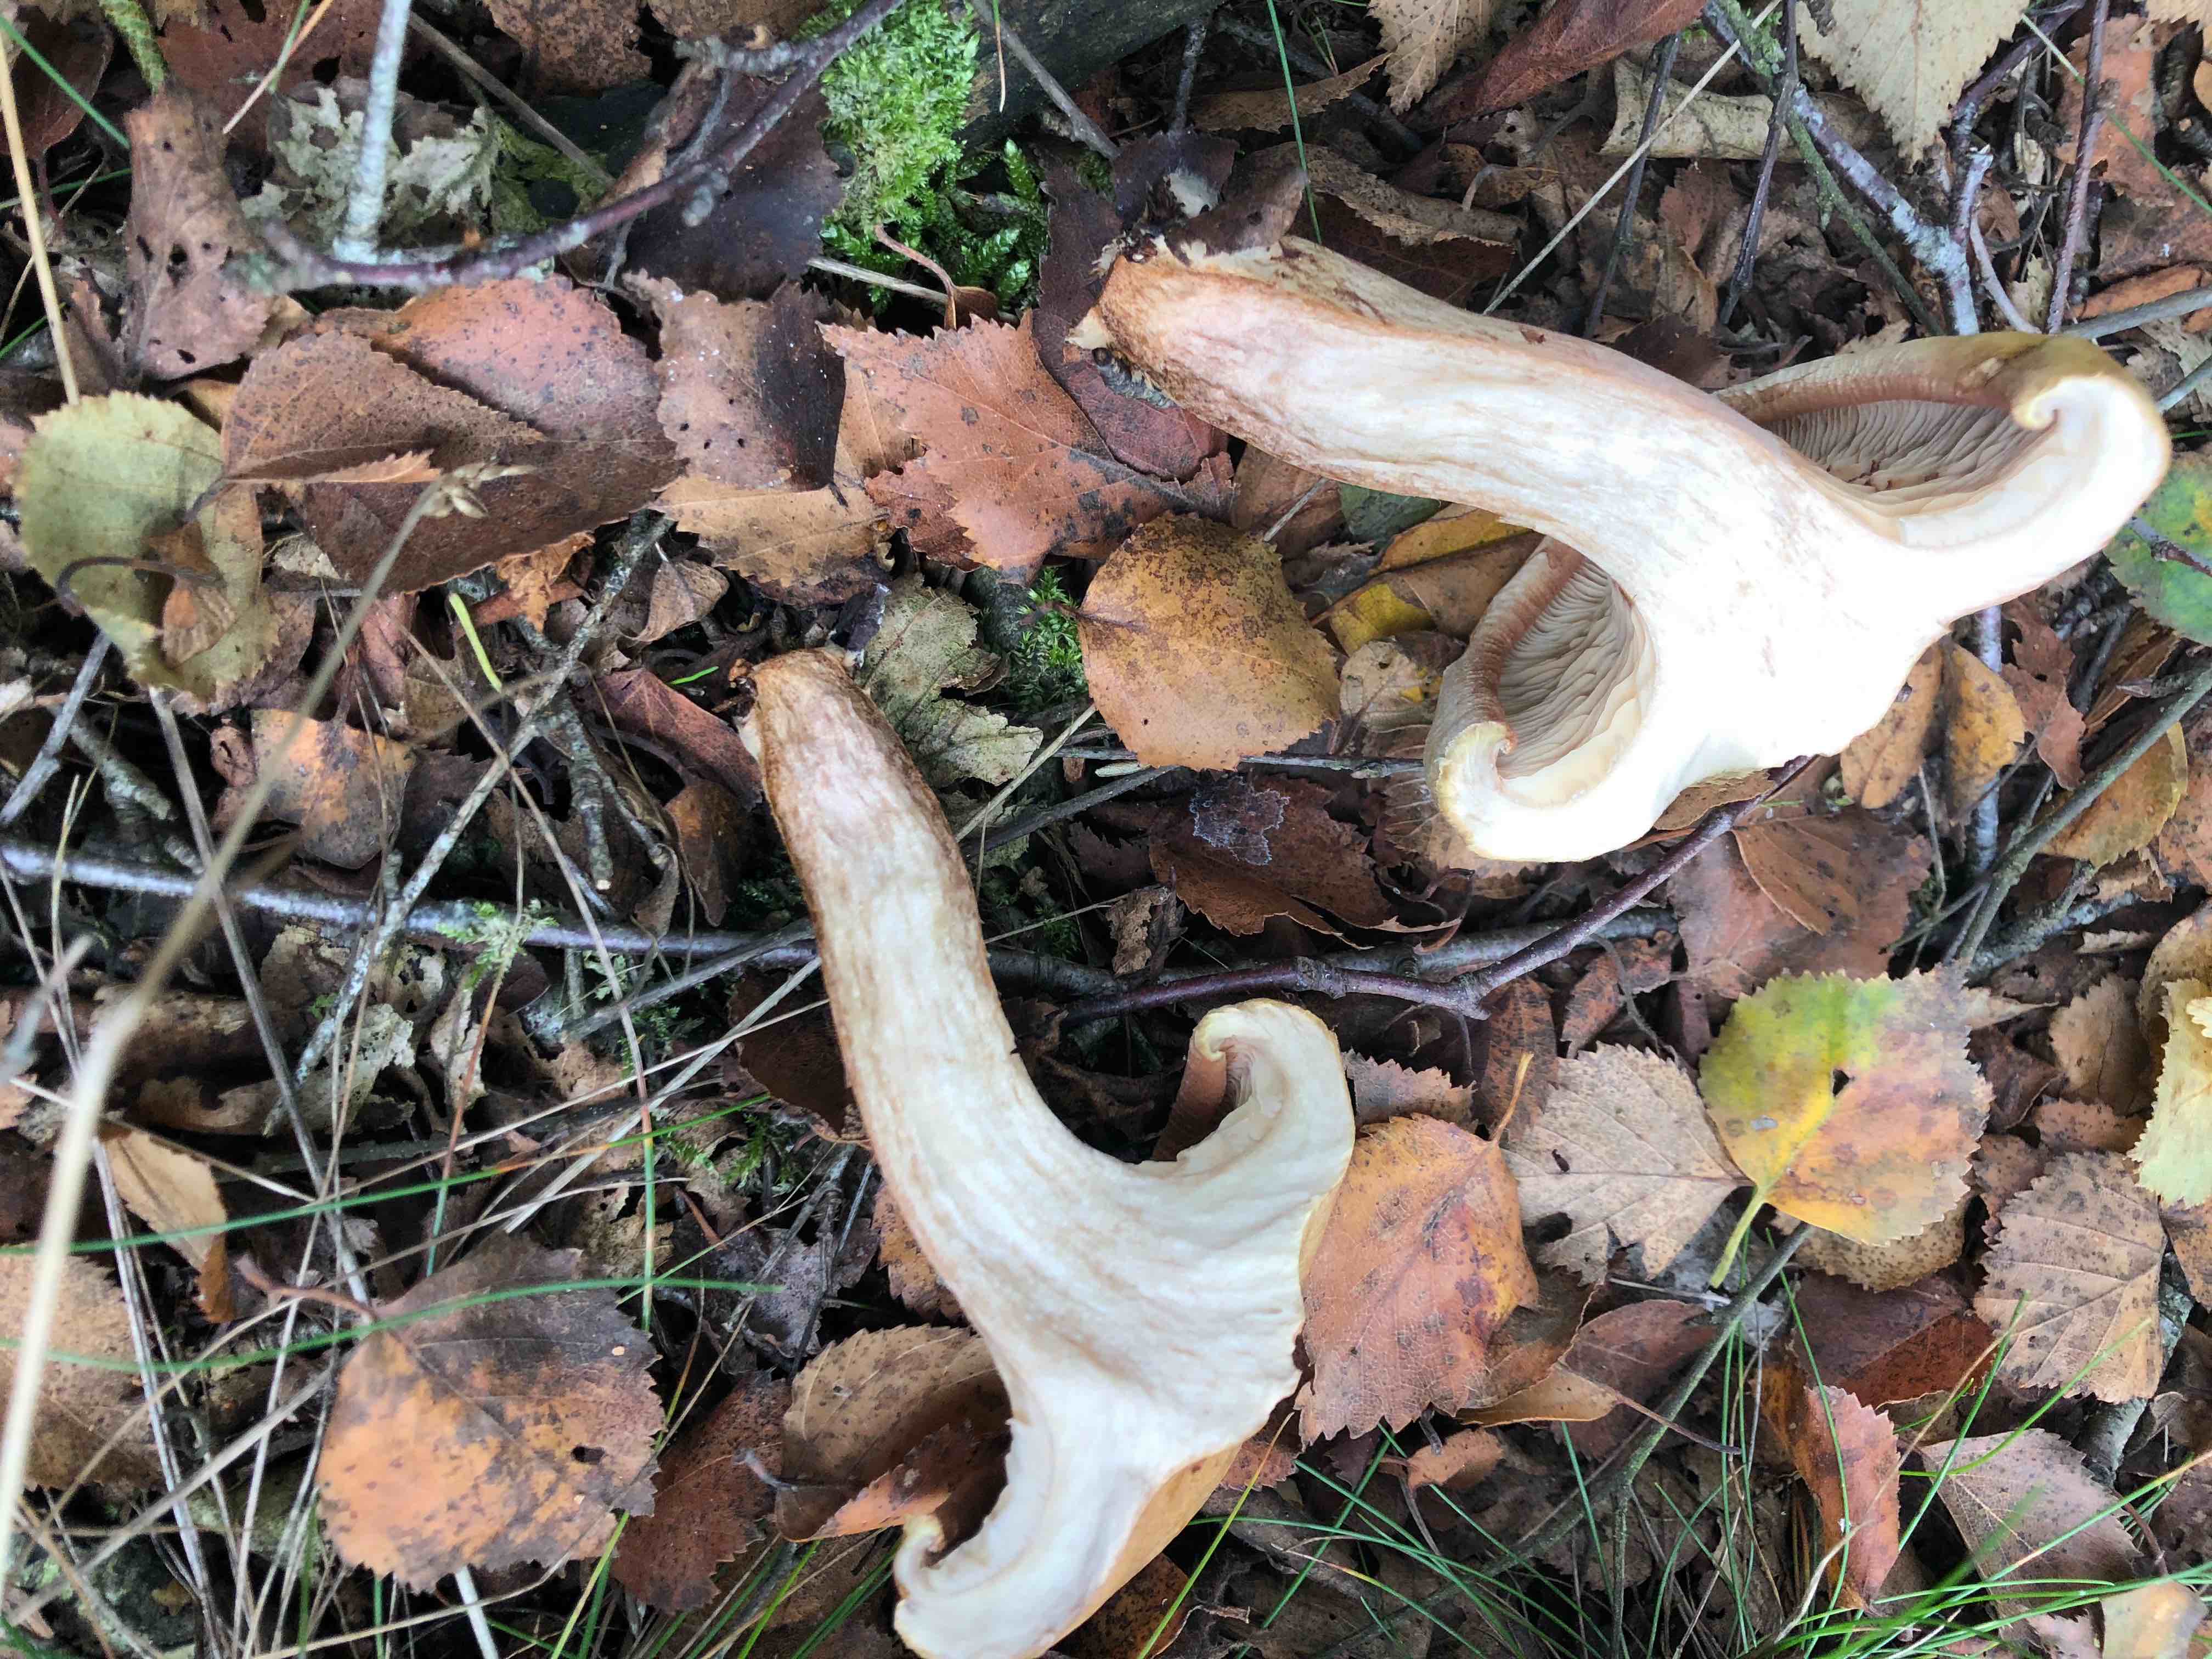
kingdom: Fungi
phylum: Basidiomycota
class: Agaricomycetes
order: Boletales
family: Paxillaceae
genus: Paxillus
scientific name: Paxillus involutus
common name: almindelig netbladhat
